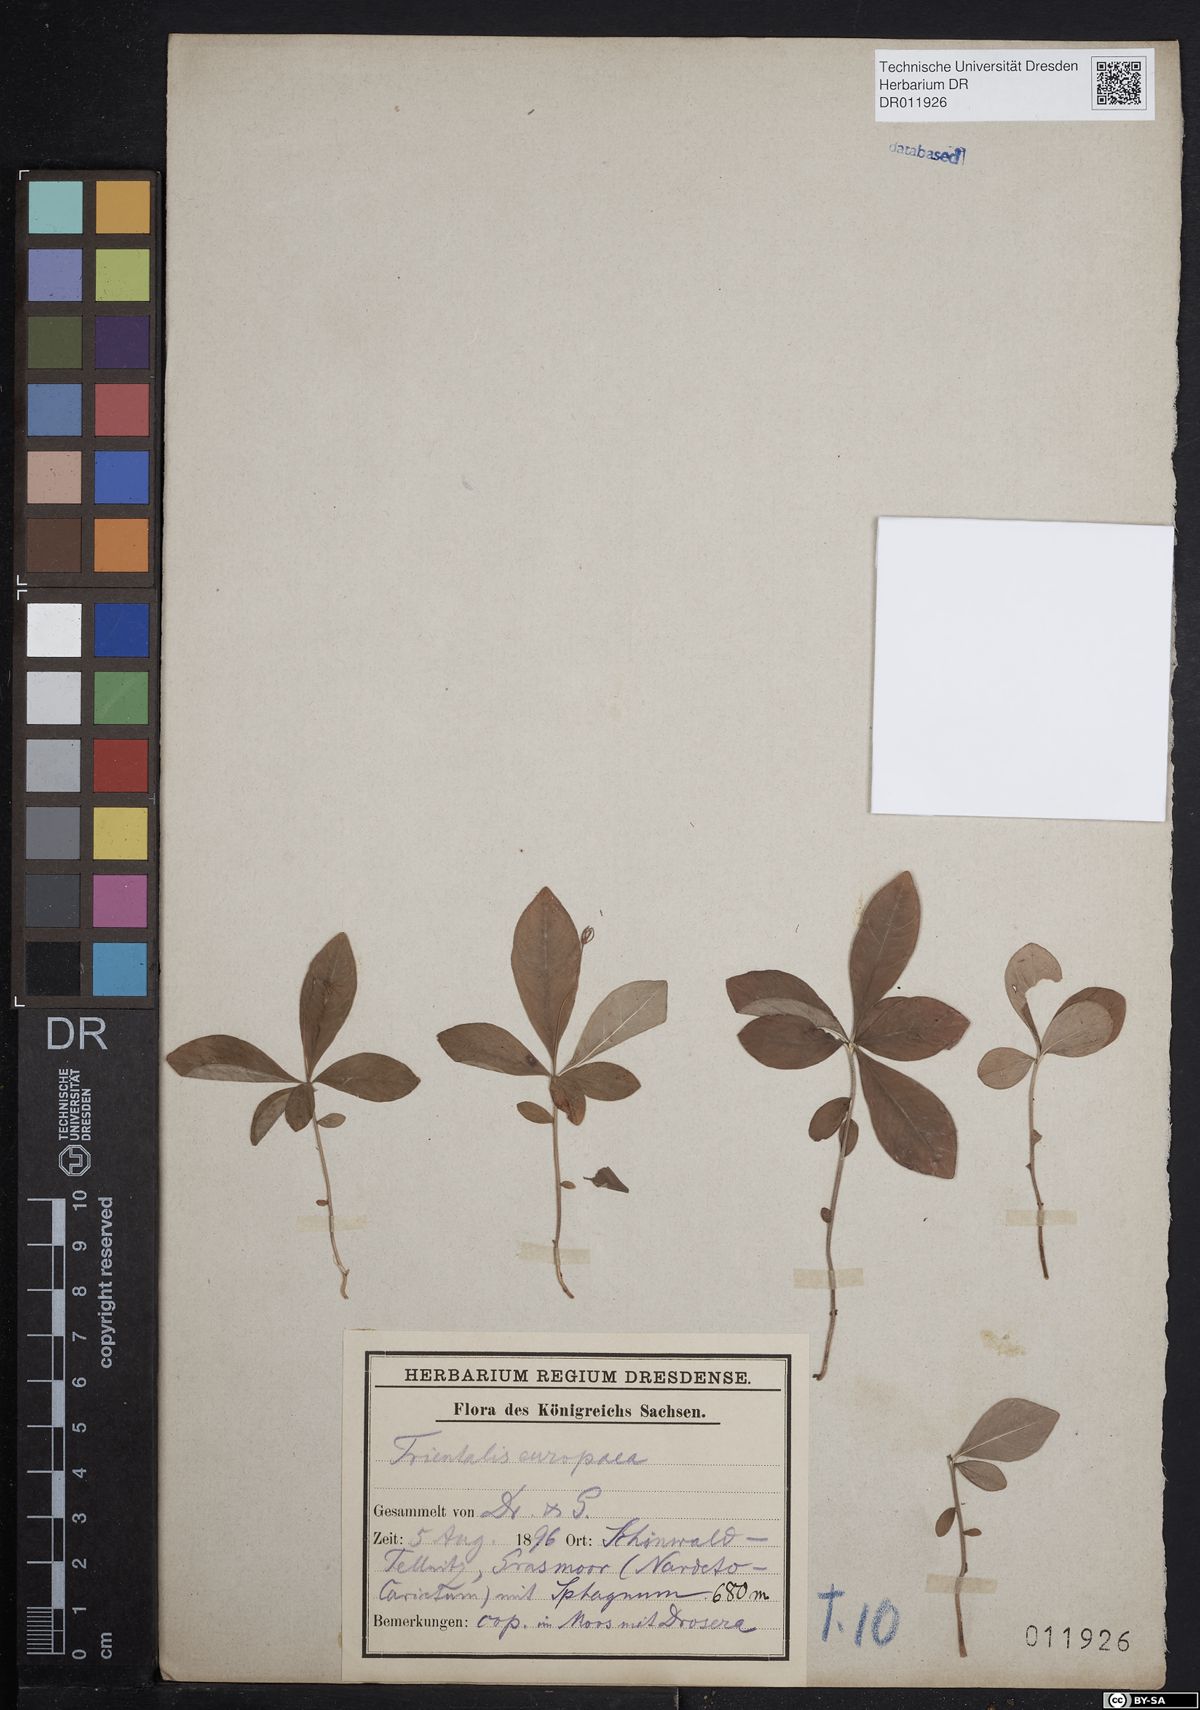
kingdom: Plantae
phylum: Tracheophyta
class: Magnoliopsida
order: Ericales
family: Primulaceae
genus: Lysimachia
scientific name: Lysimachia europaea
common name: Arctic starflower
